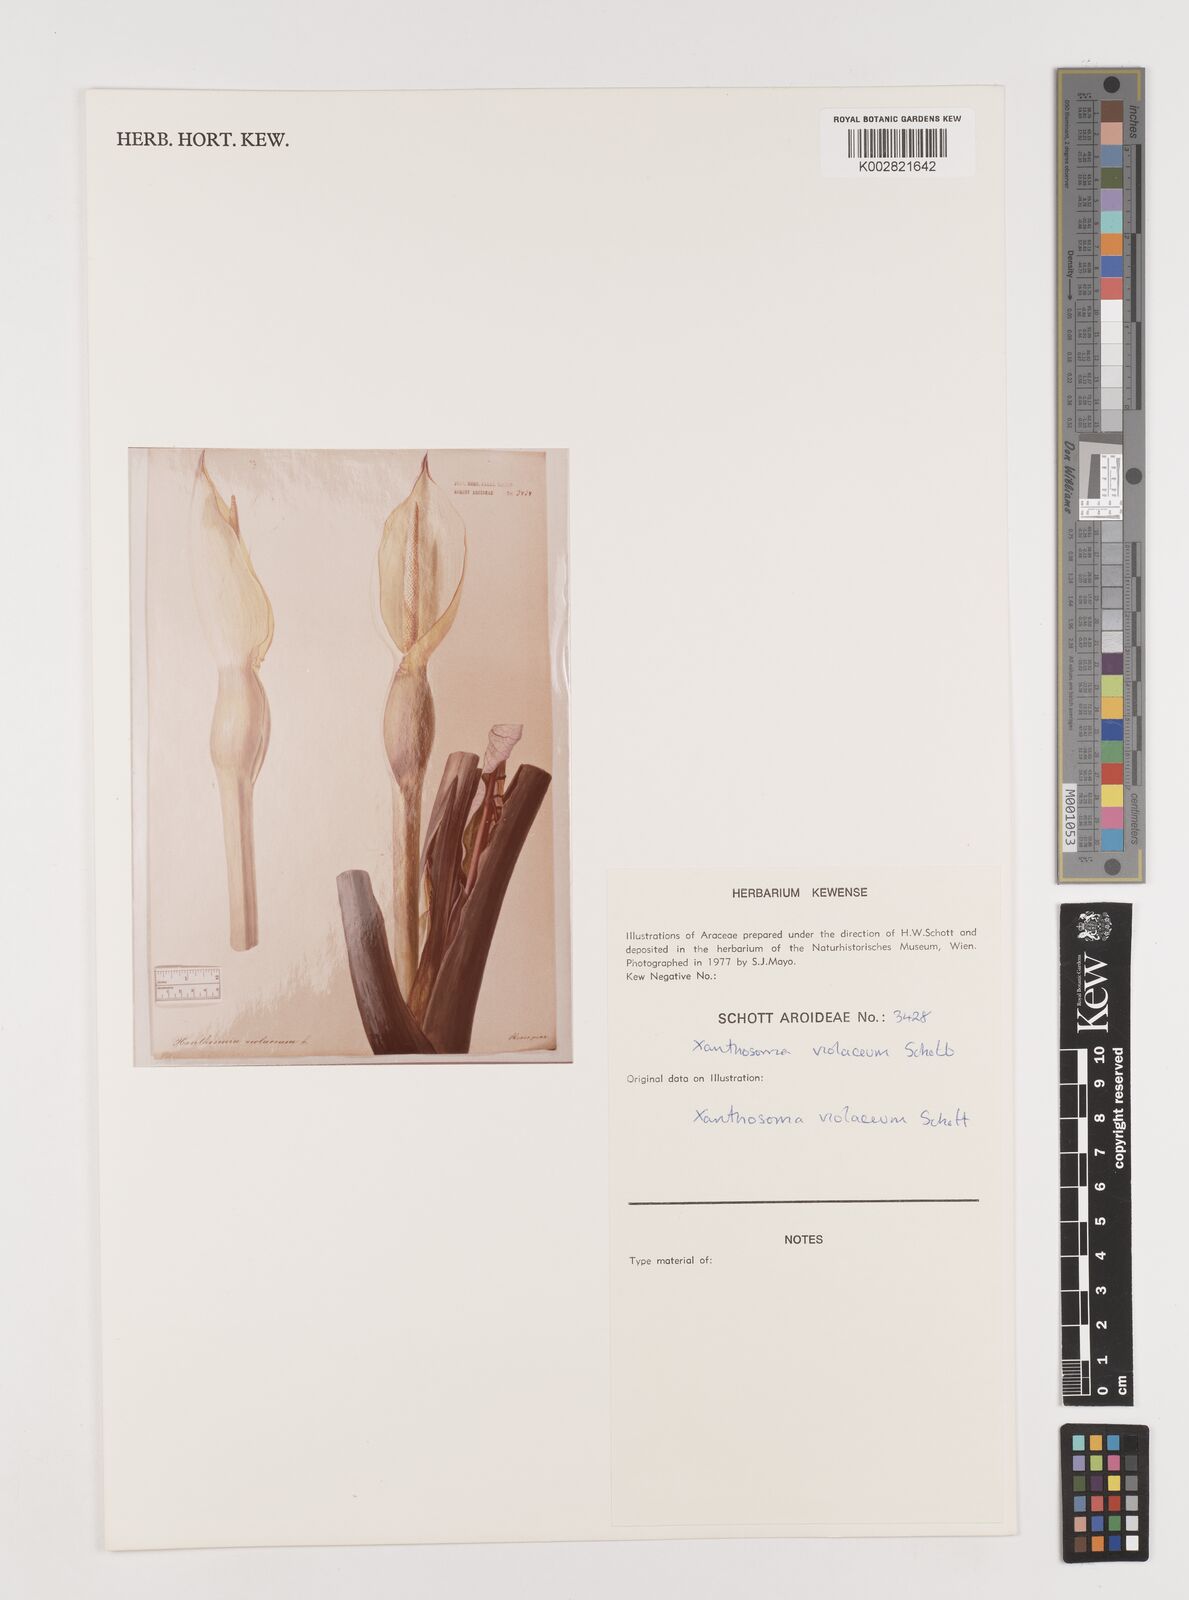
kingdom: Plantae
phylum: Tracheophyta
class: Liliopsida
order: Alismatales
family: Araceae
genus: Xanthosoma
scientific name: Xanthosoma sagittifolium
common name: Arrowleaf elephant's ear
